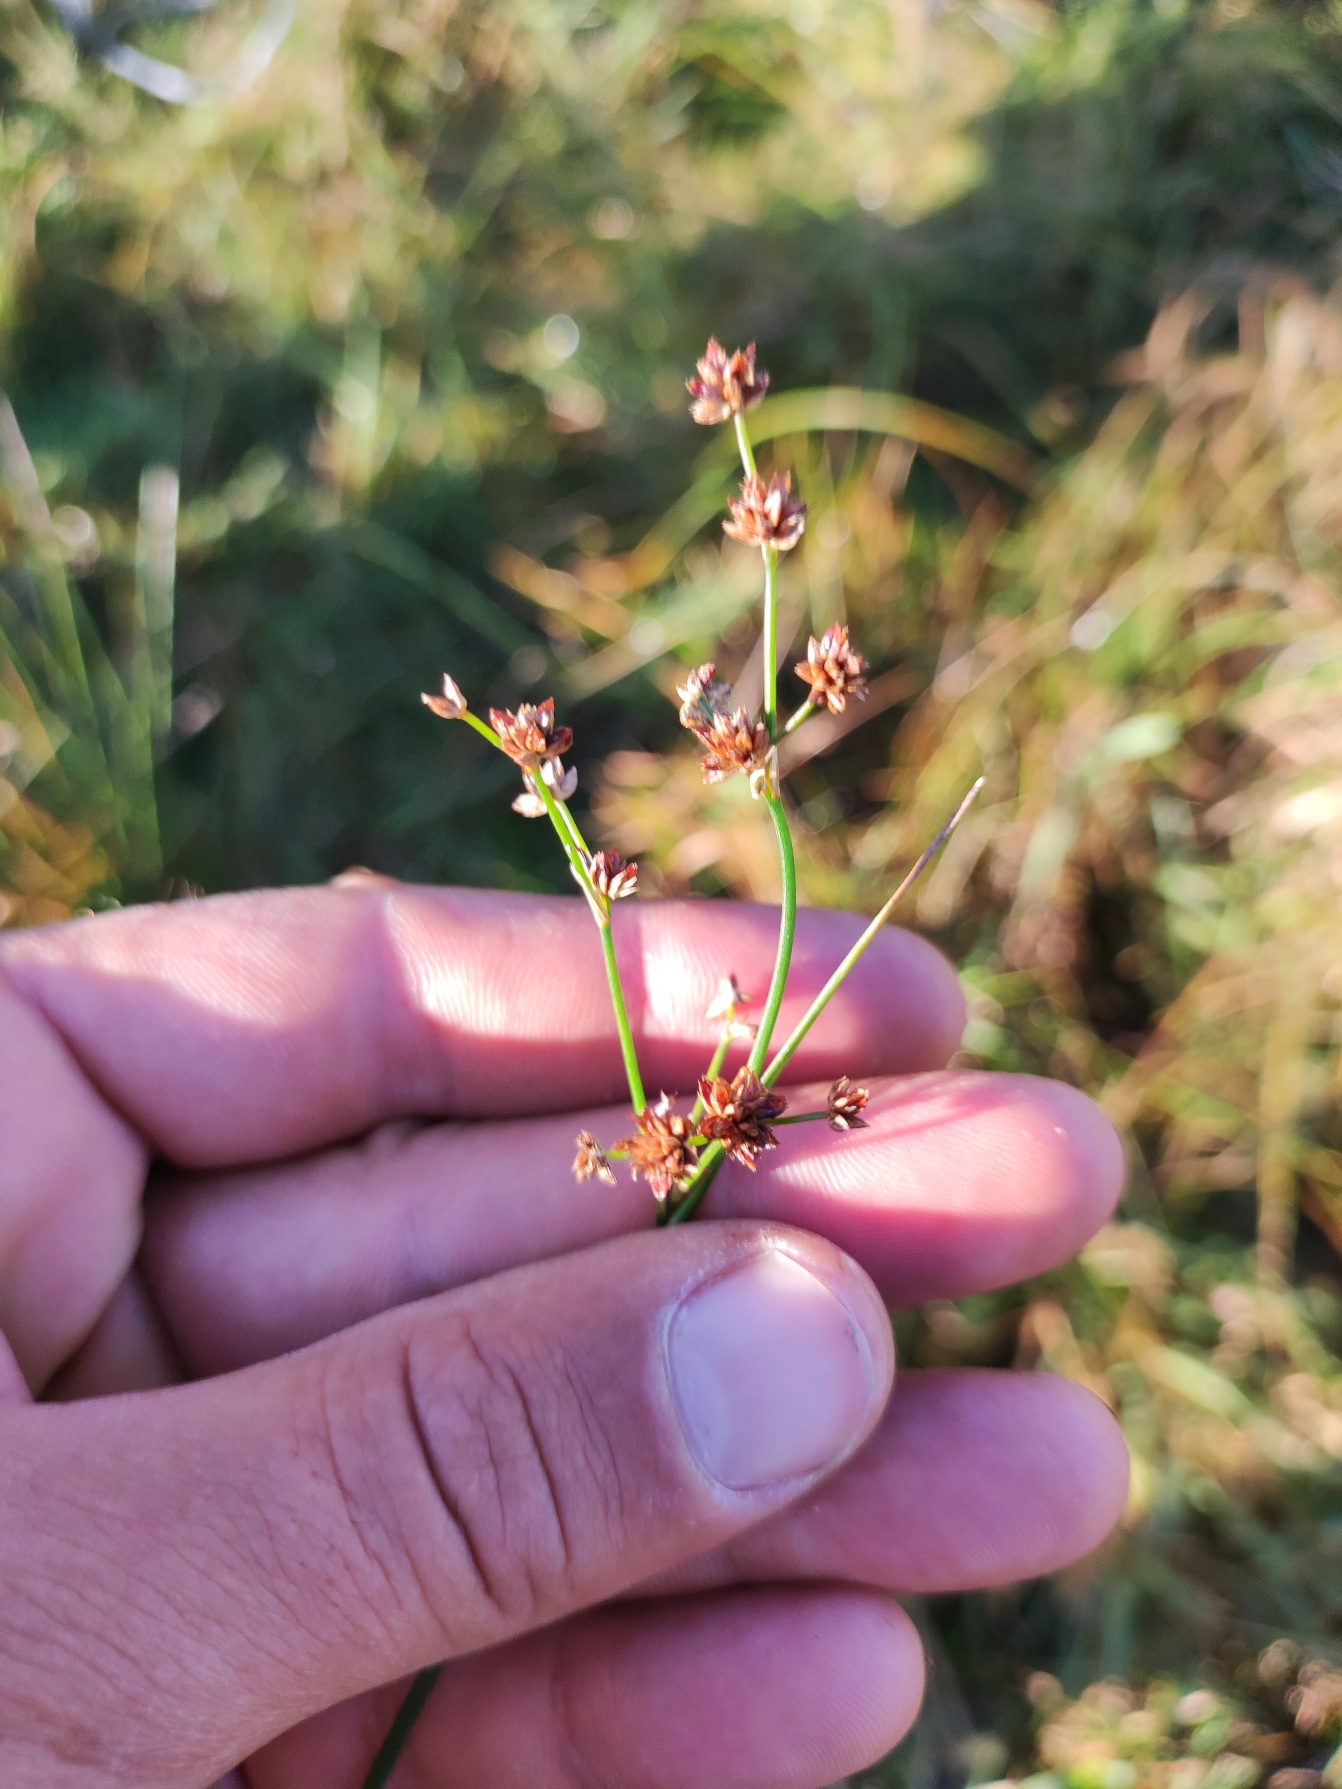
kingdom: Plantae
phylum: Tracheophyta
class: Liliopsida
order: Poales
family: Juncaceae
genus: Juncus
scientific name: Juncus articulatus
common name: Glanskapslet siv
